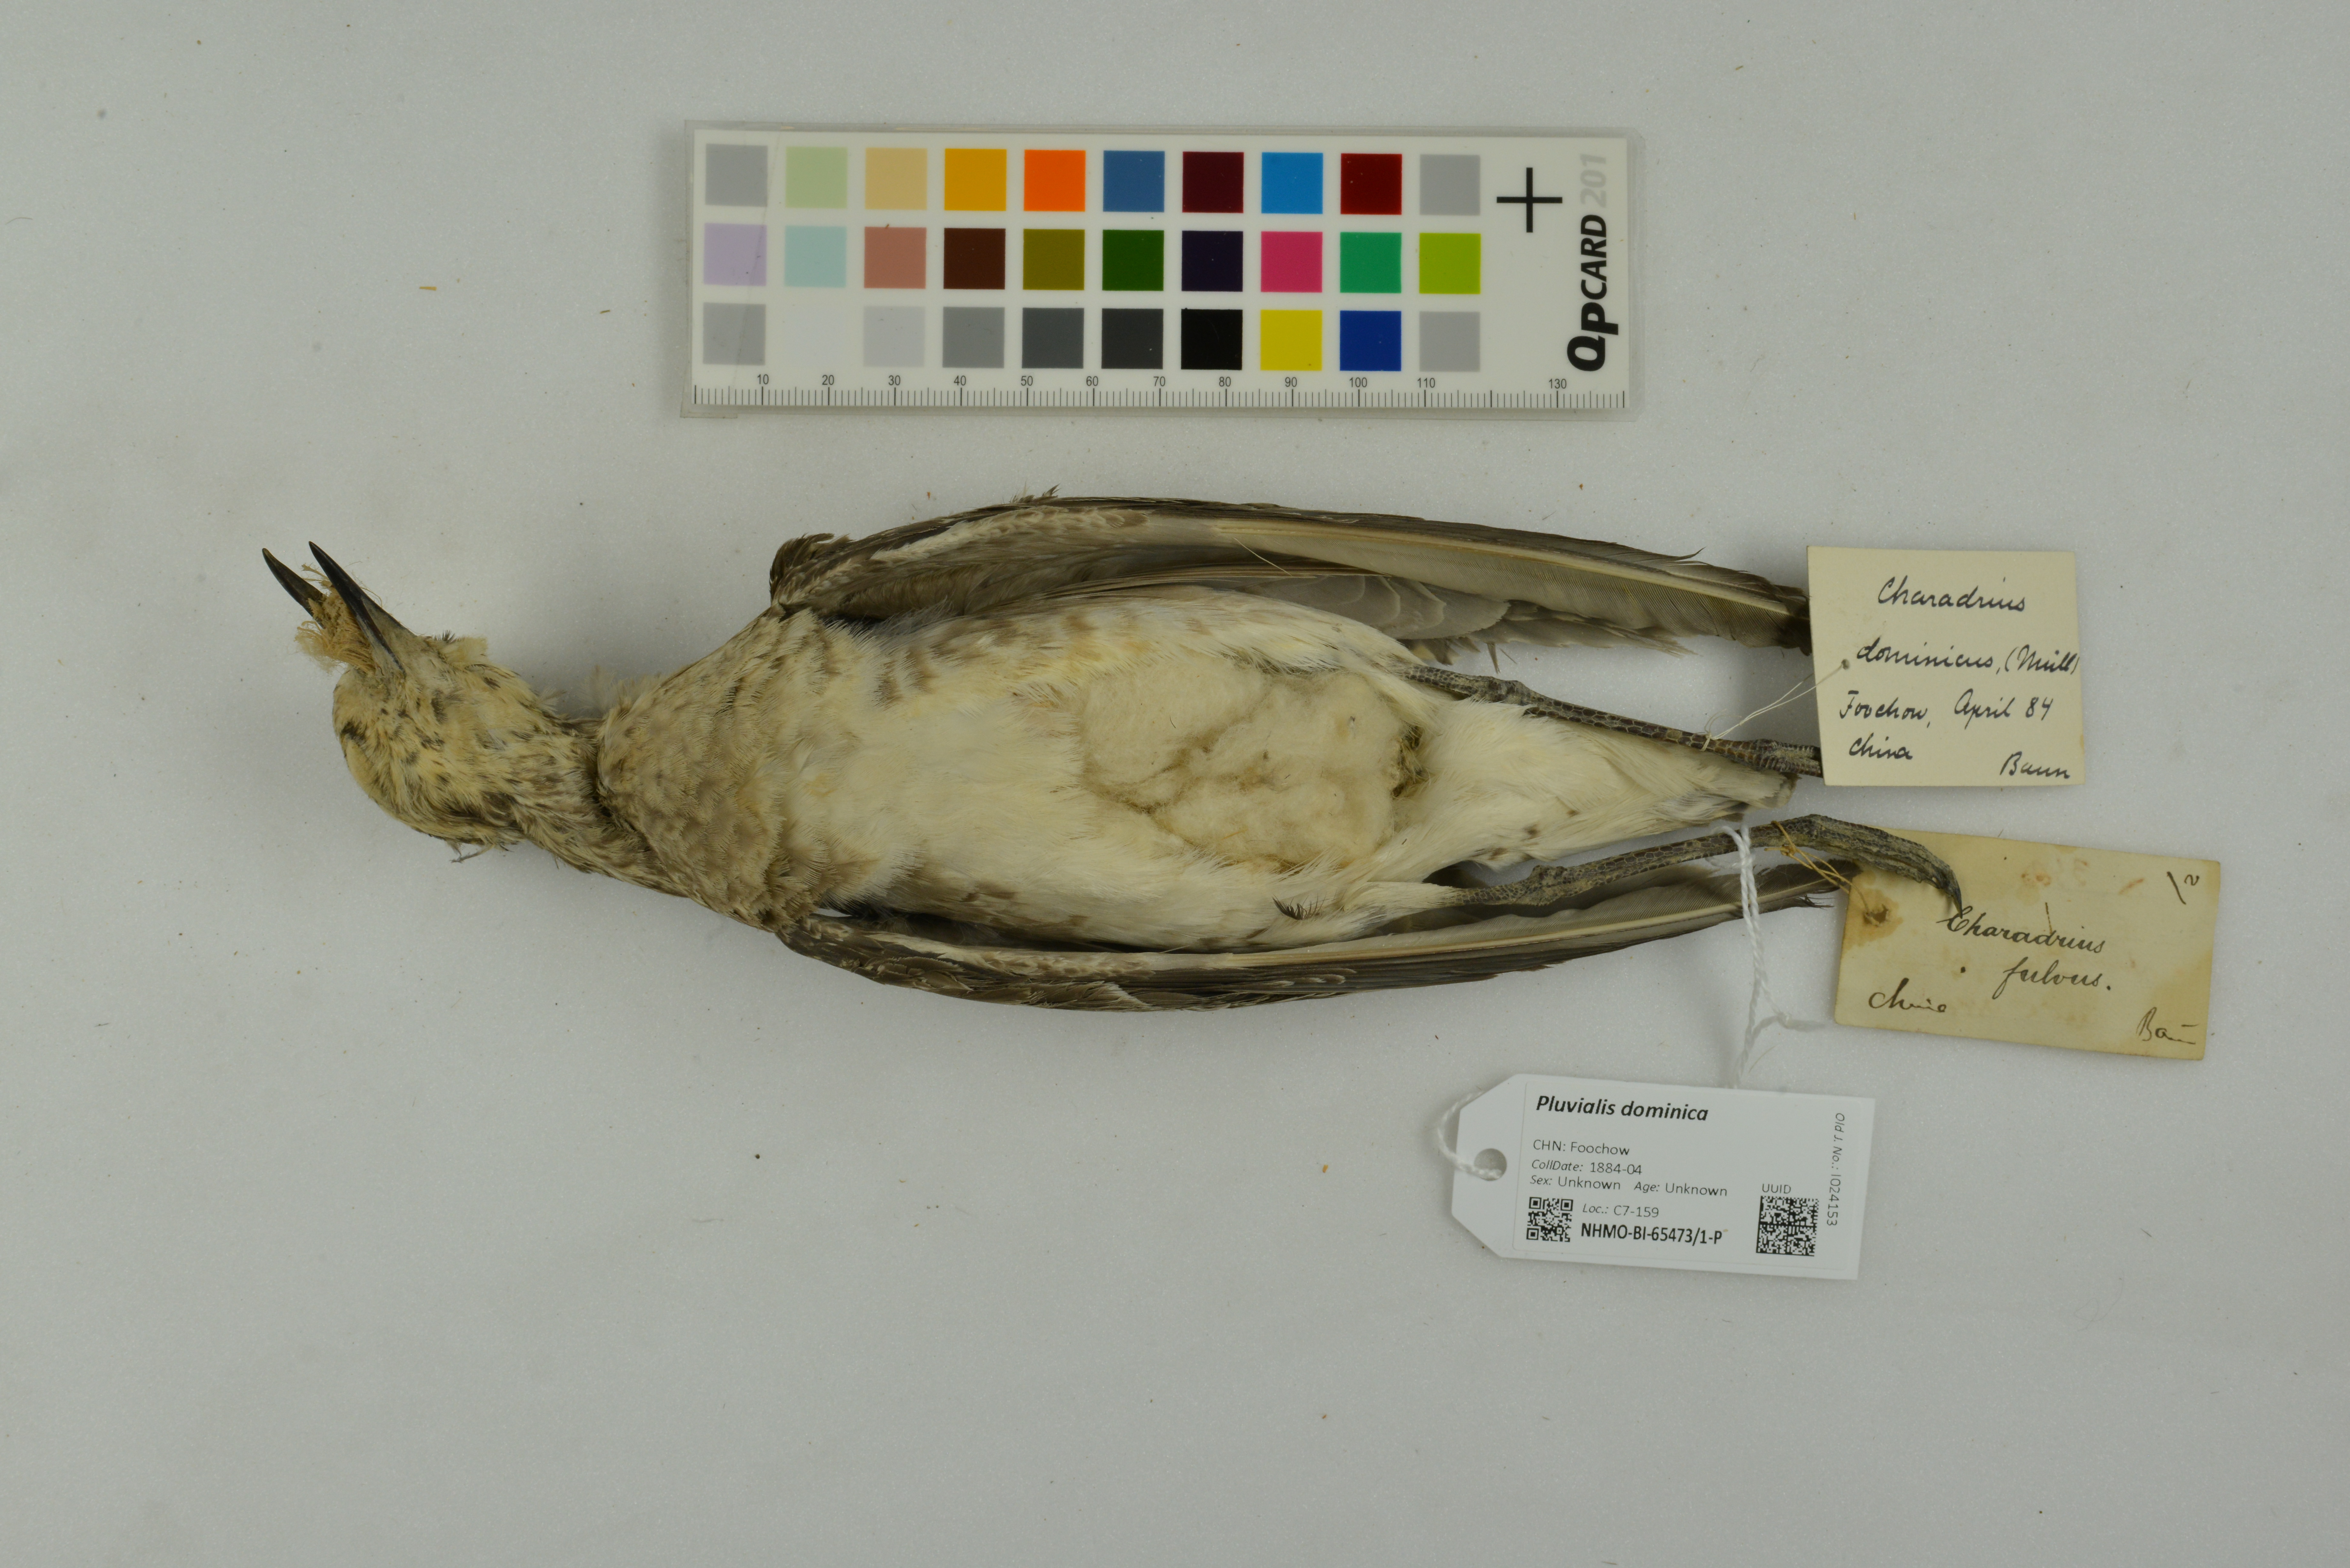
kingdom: Animalia
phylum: Chordata
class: Aves
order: Charadriiformes
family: Charadriidae
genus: Pluvialis
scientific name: Pluvialis dominica
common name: American golden plover
